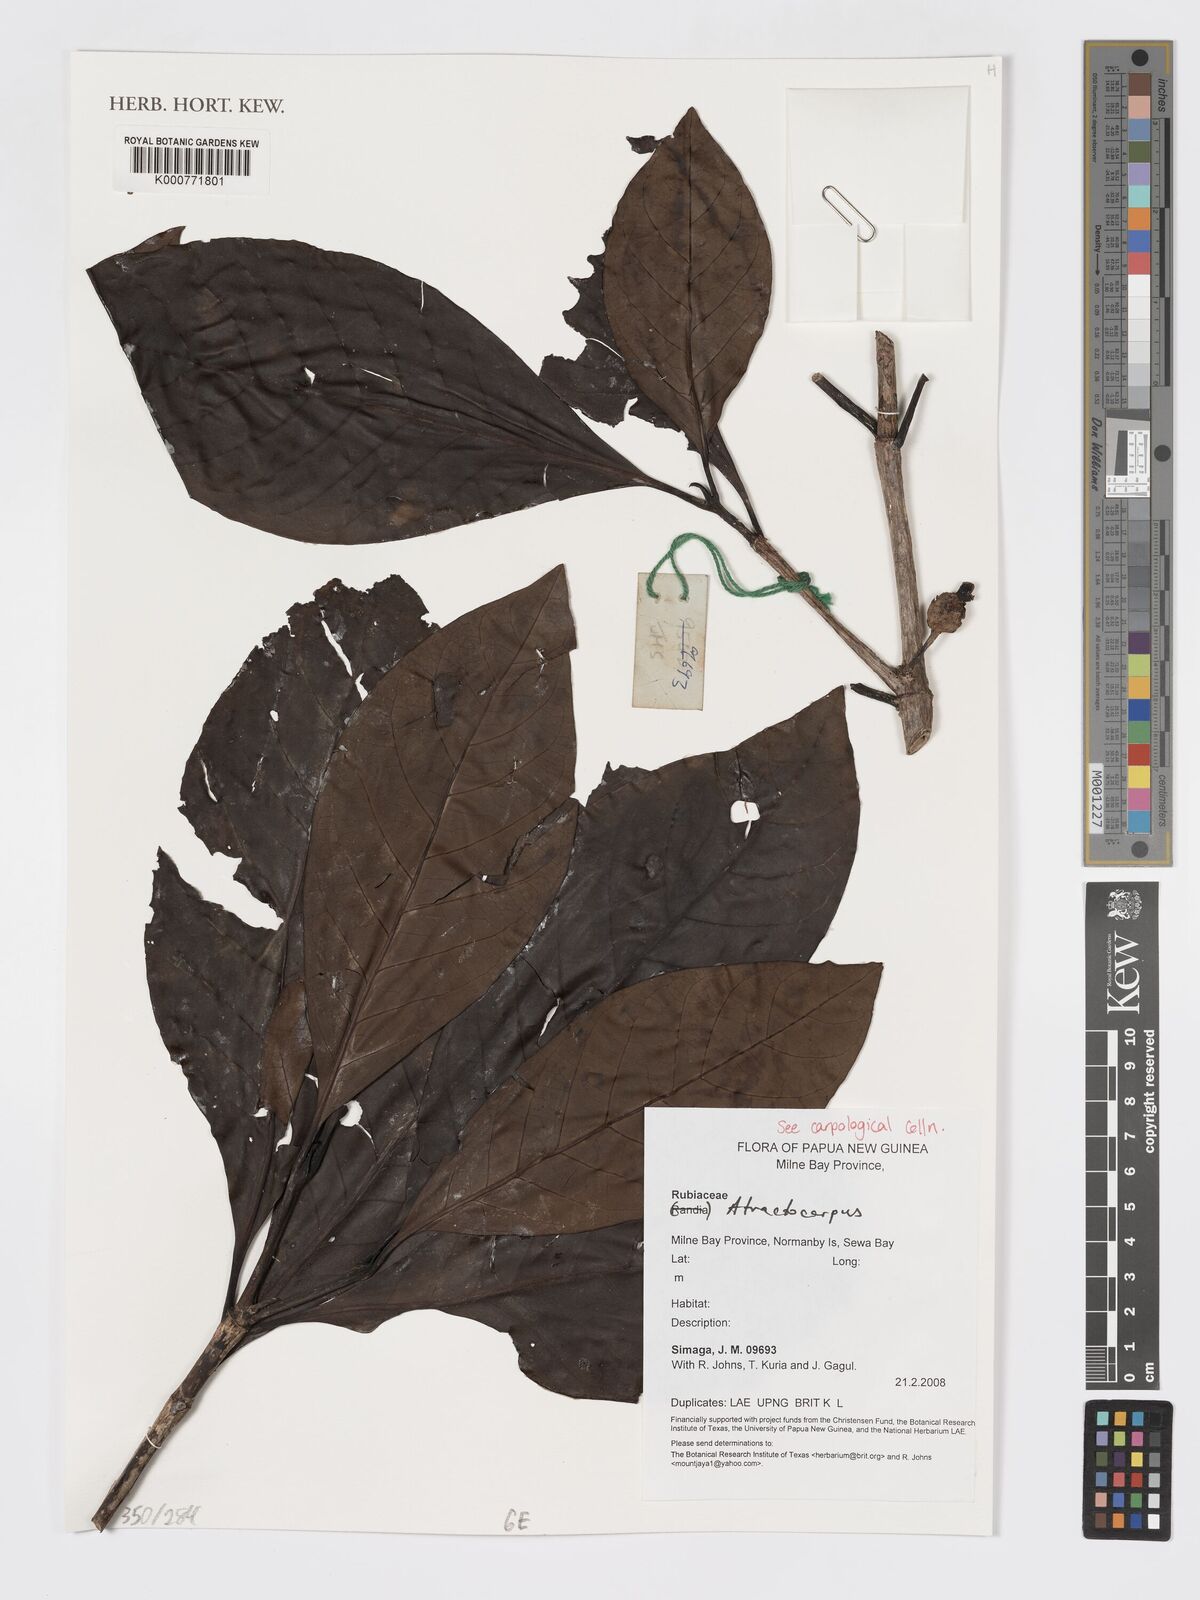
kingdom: Plantae
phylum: Tracheophyta
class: Magnoliopsida
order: Gentianales
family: Rubiaceae
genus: Atractocarpus
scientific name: Atractocarpus
